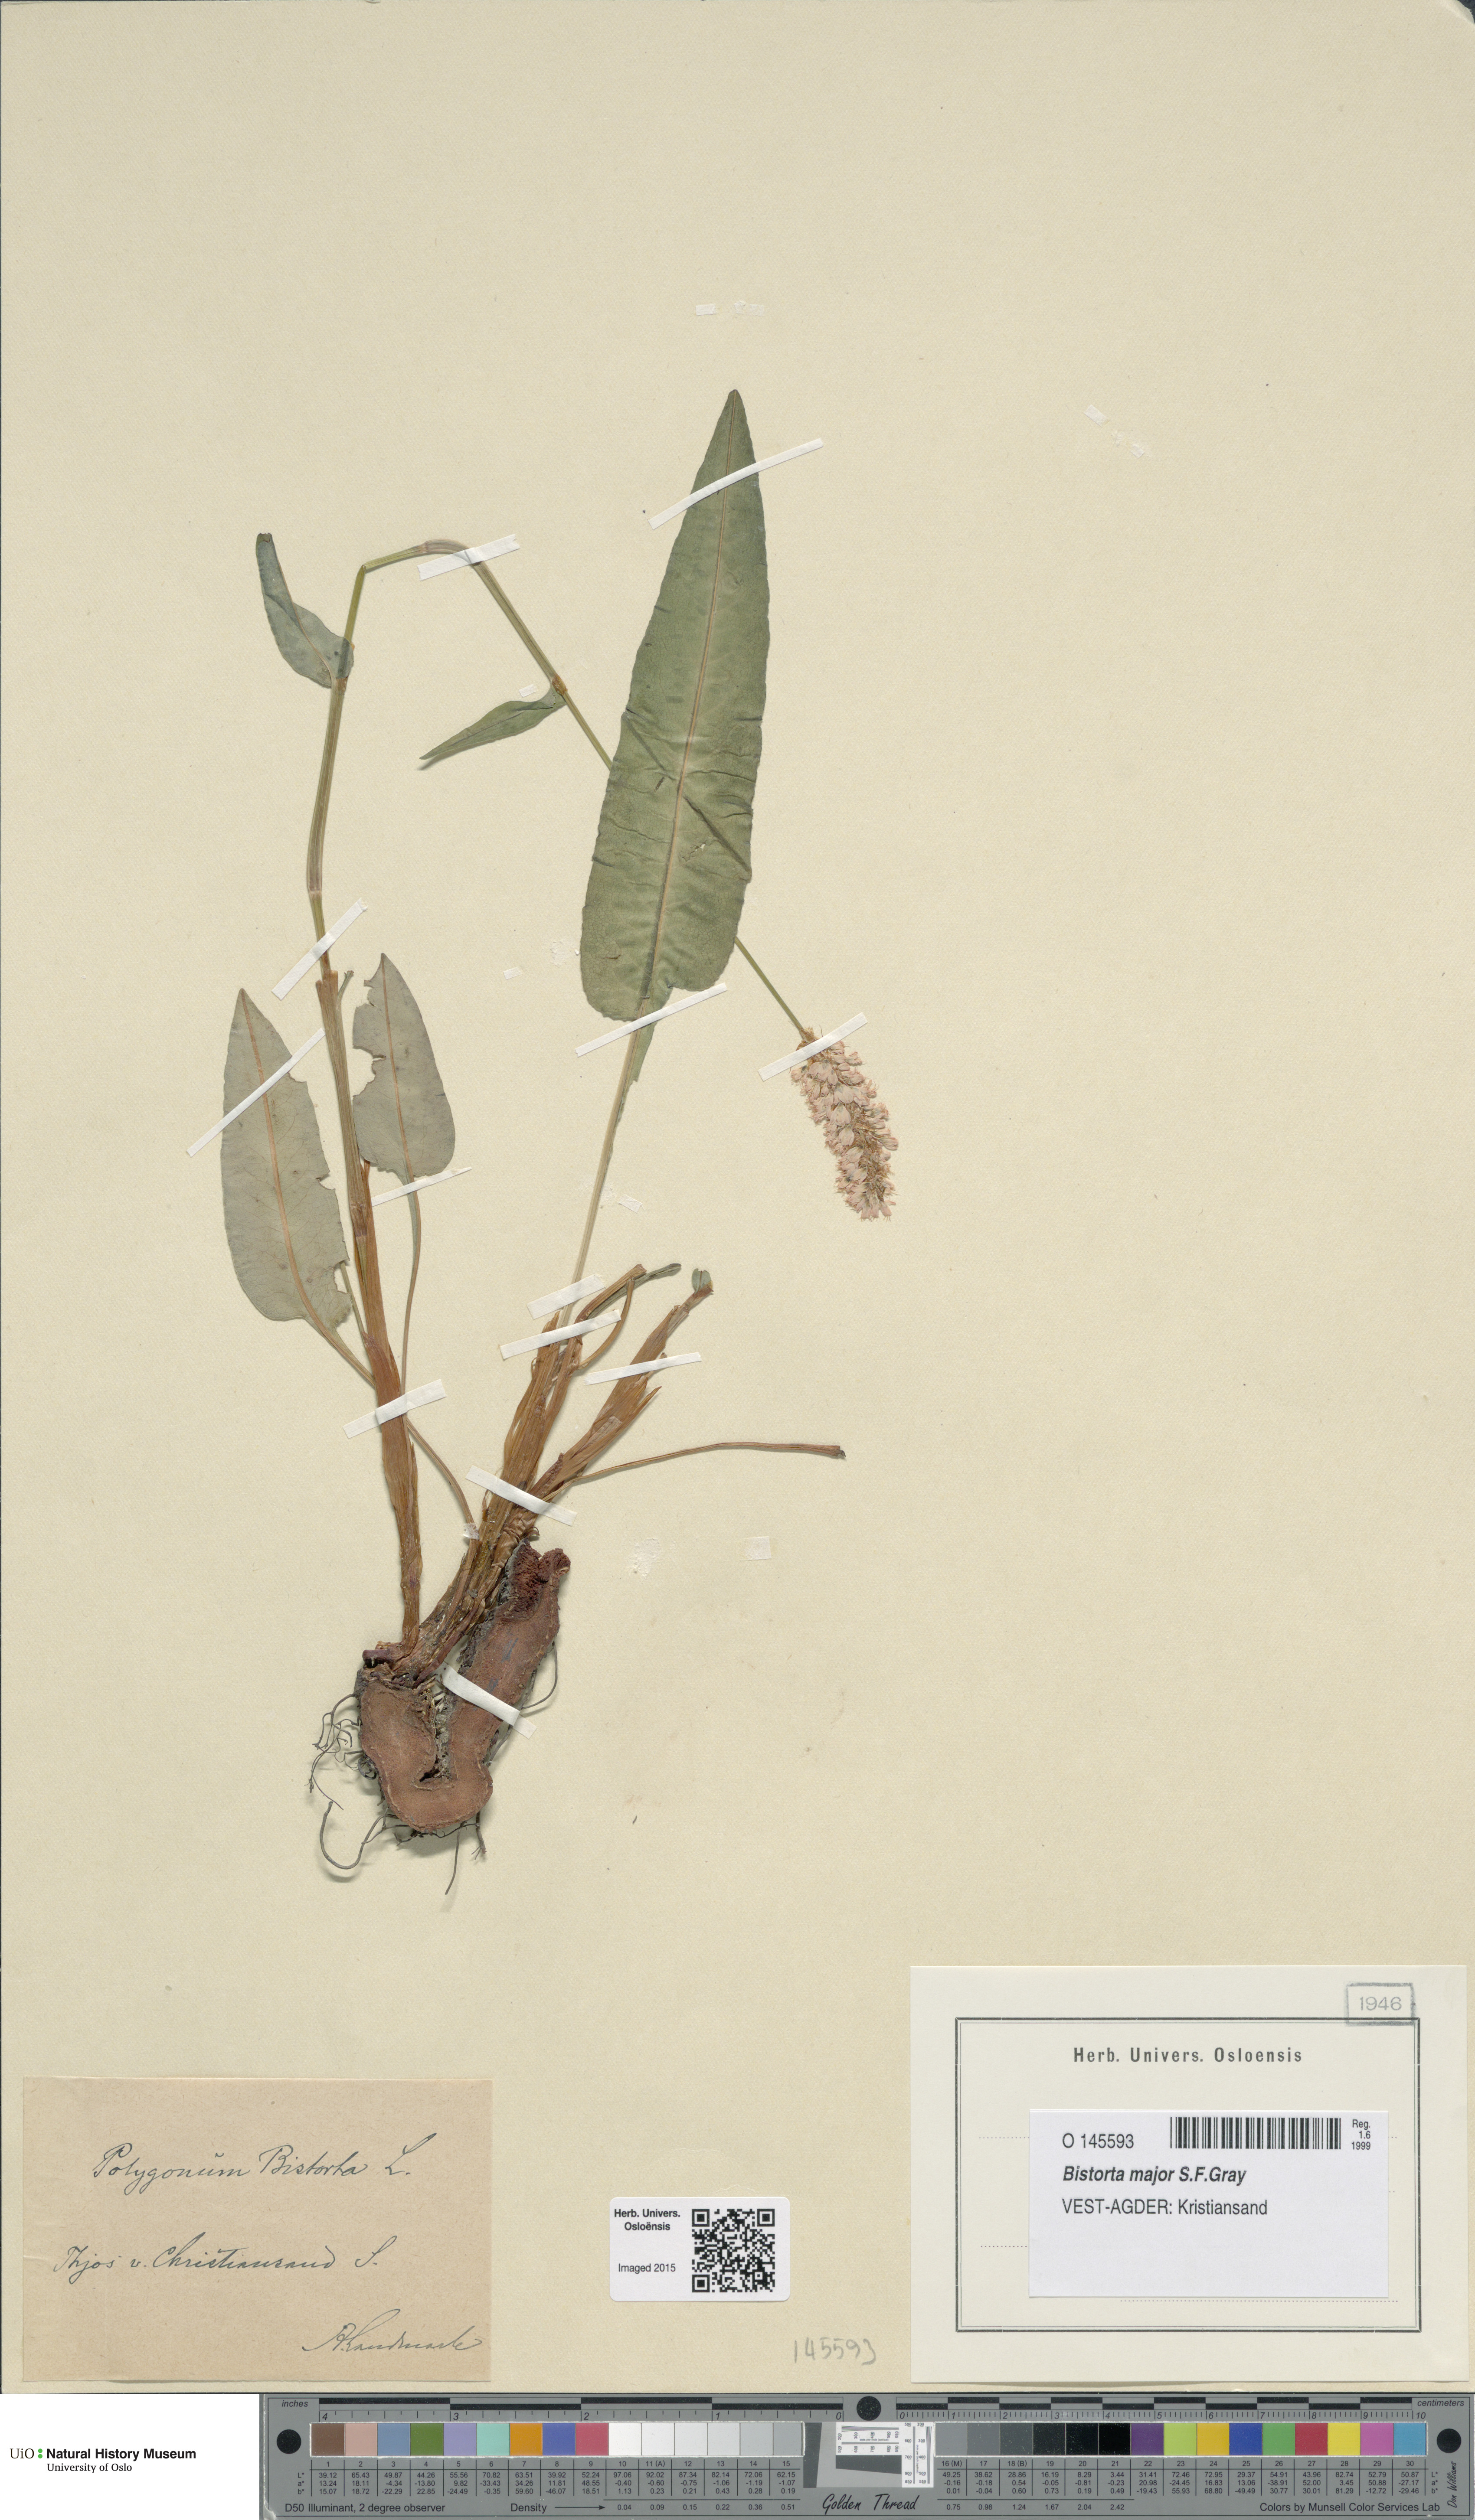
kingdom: Plantae
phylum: Tracheophyta
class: Magnoliopsida
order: Caryophyllales
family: Polygonaceae
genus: Bistorta
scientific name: Bistorta officinalis
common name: Common bistort
